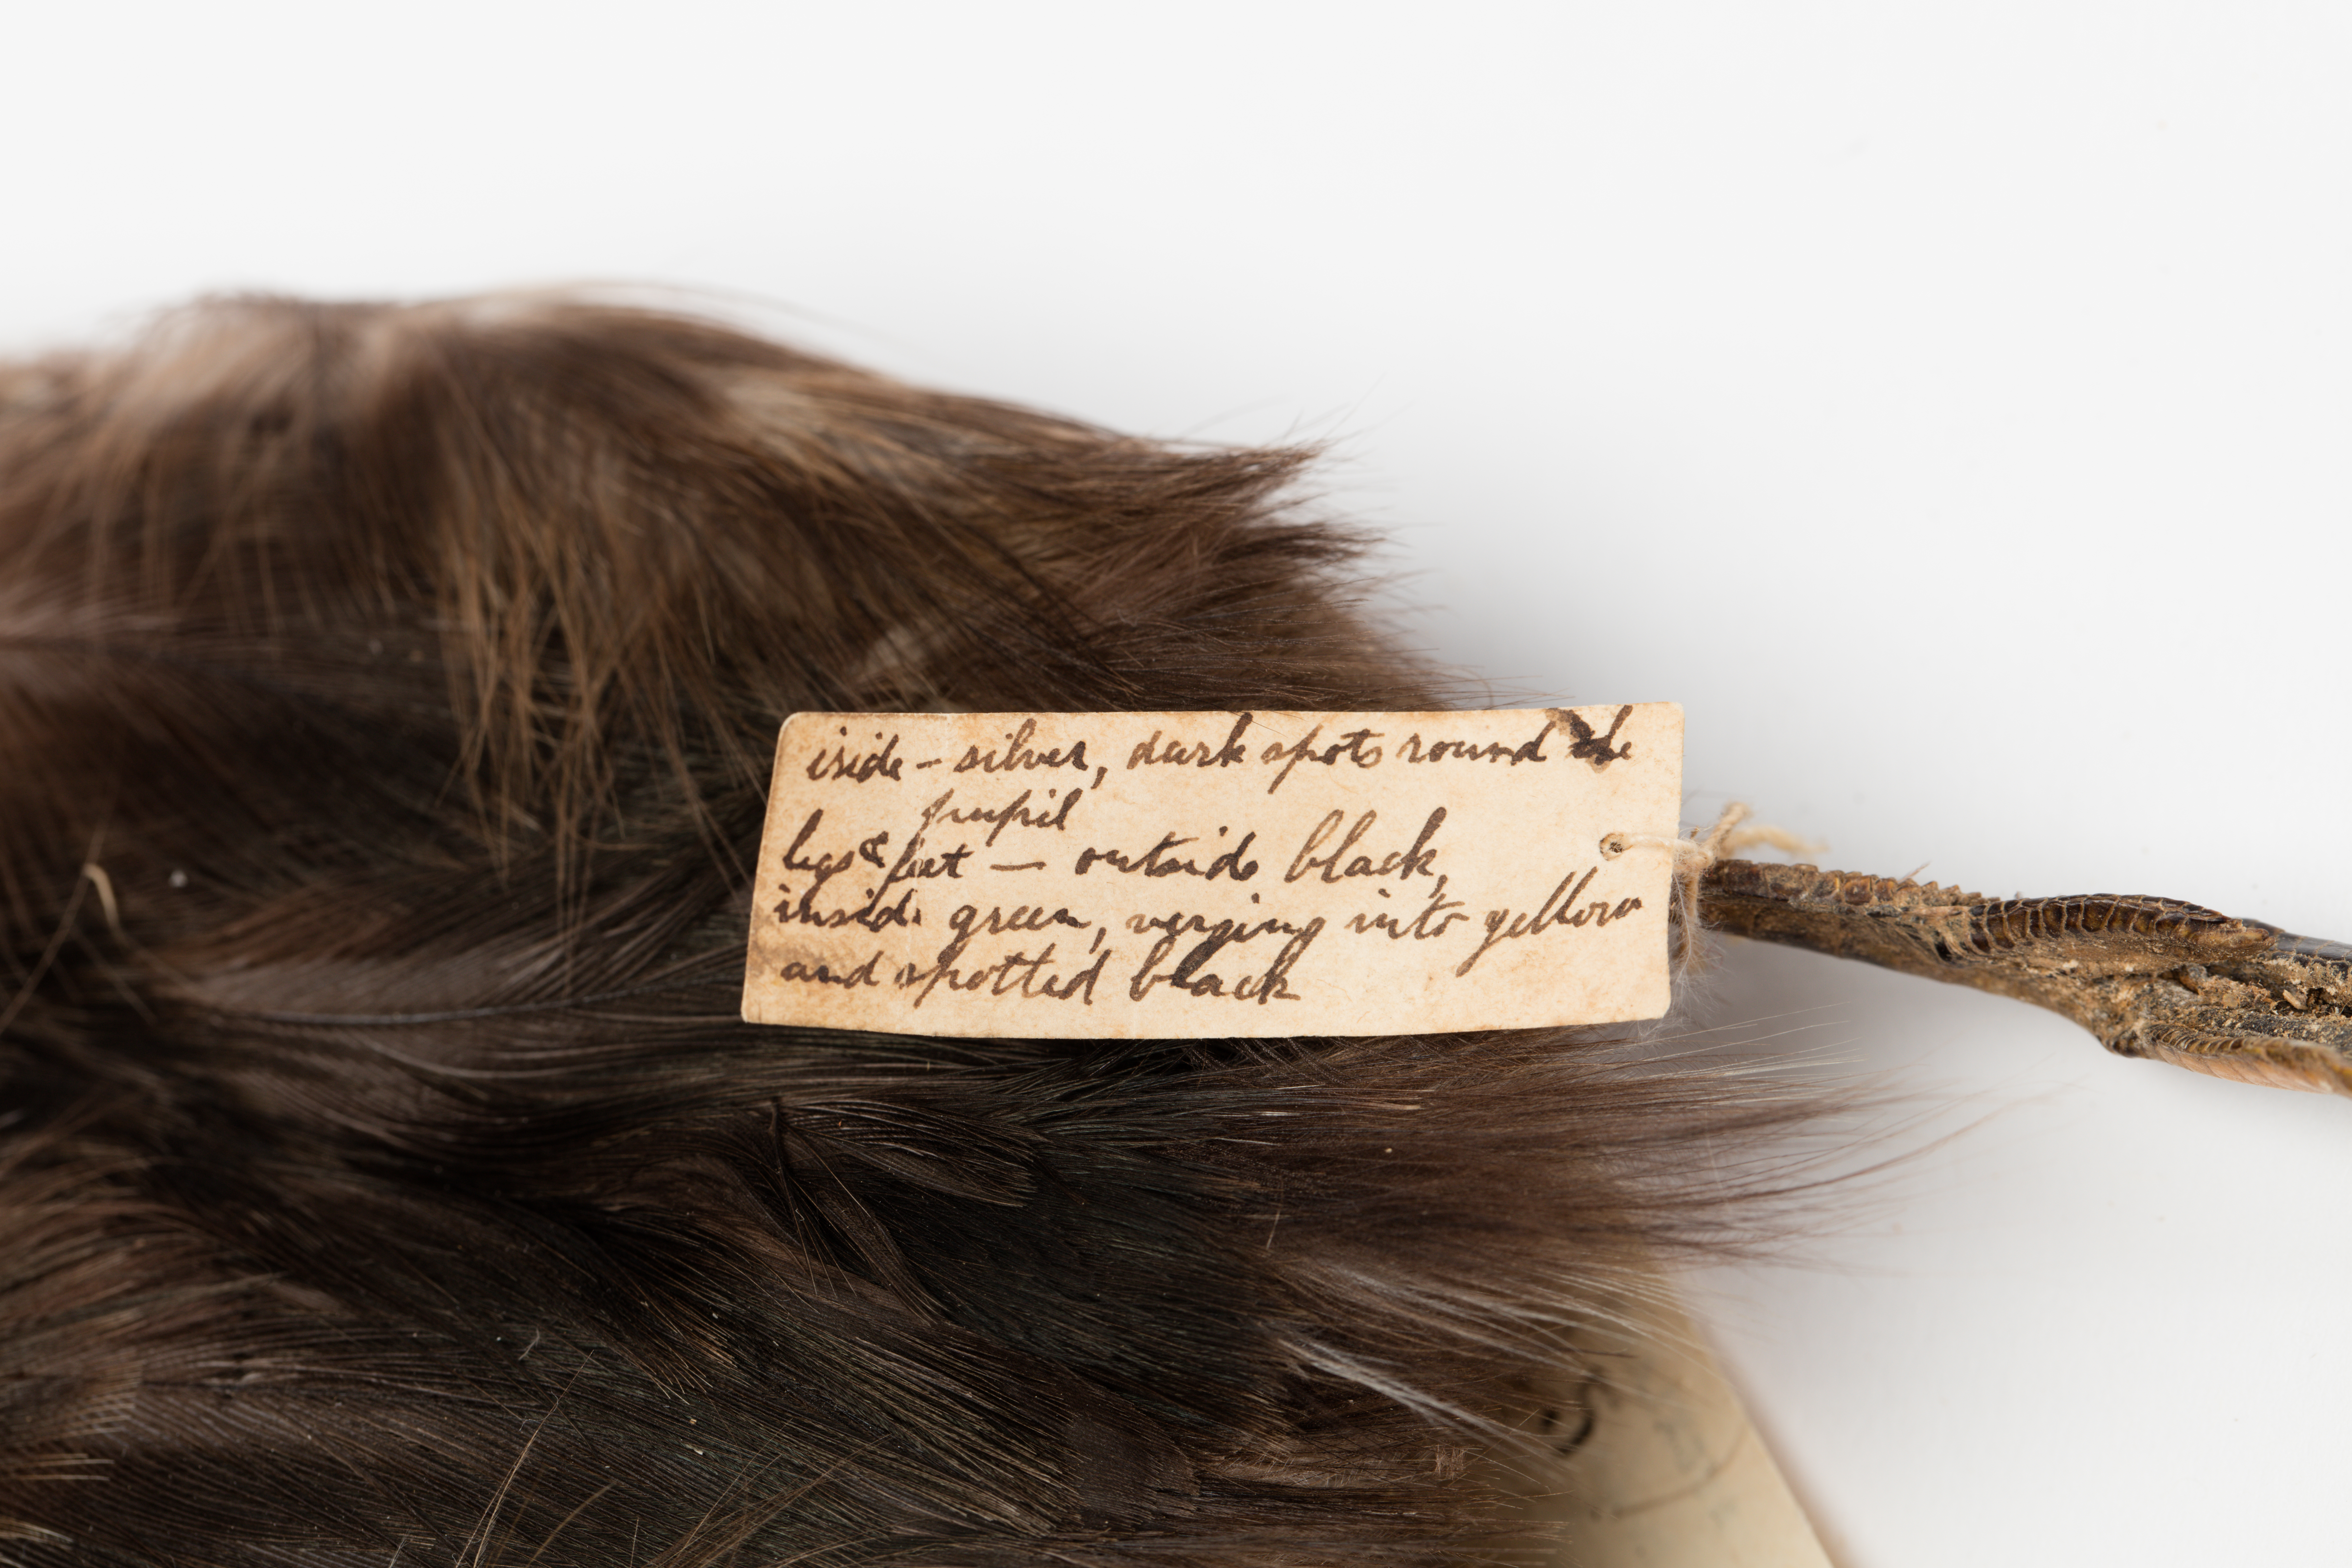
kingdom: Animalia
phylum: Chordata
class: Aves
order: Podicipediformes
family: Podicipedidae
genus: Poliocephalus
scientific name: Poliocephalus rufopectus
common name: New zealand grebe
